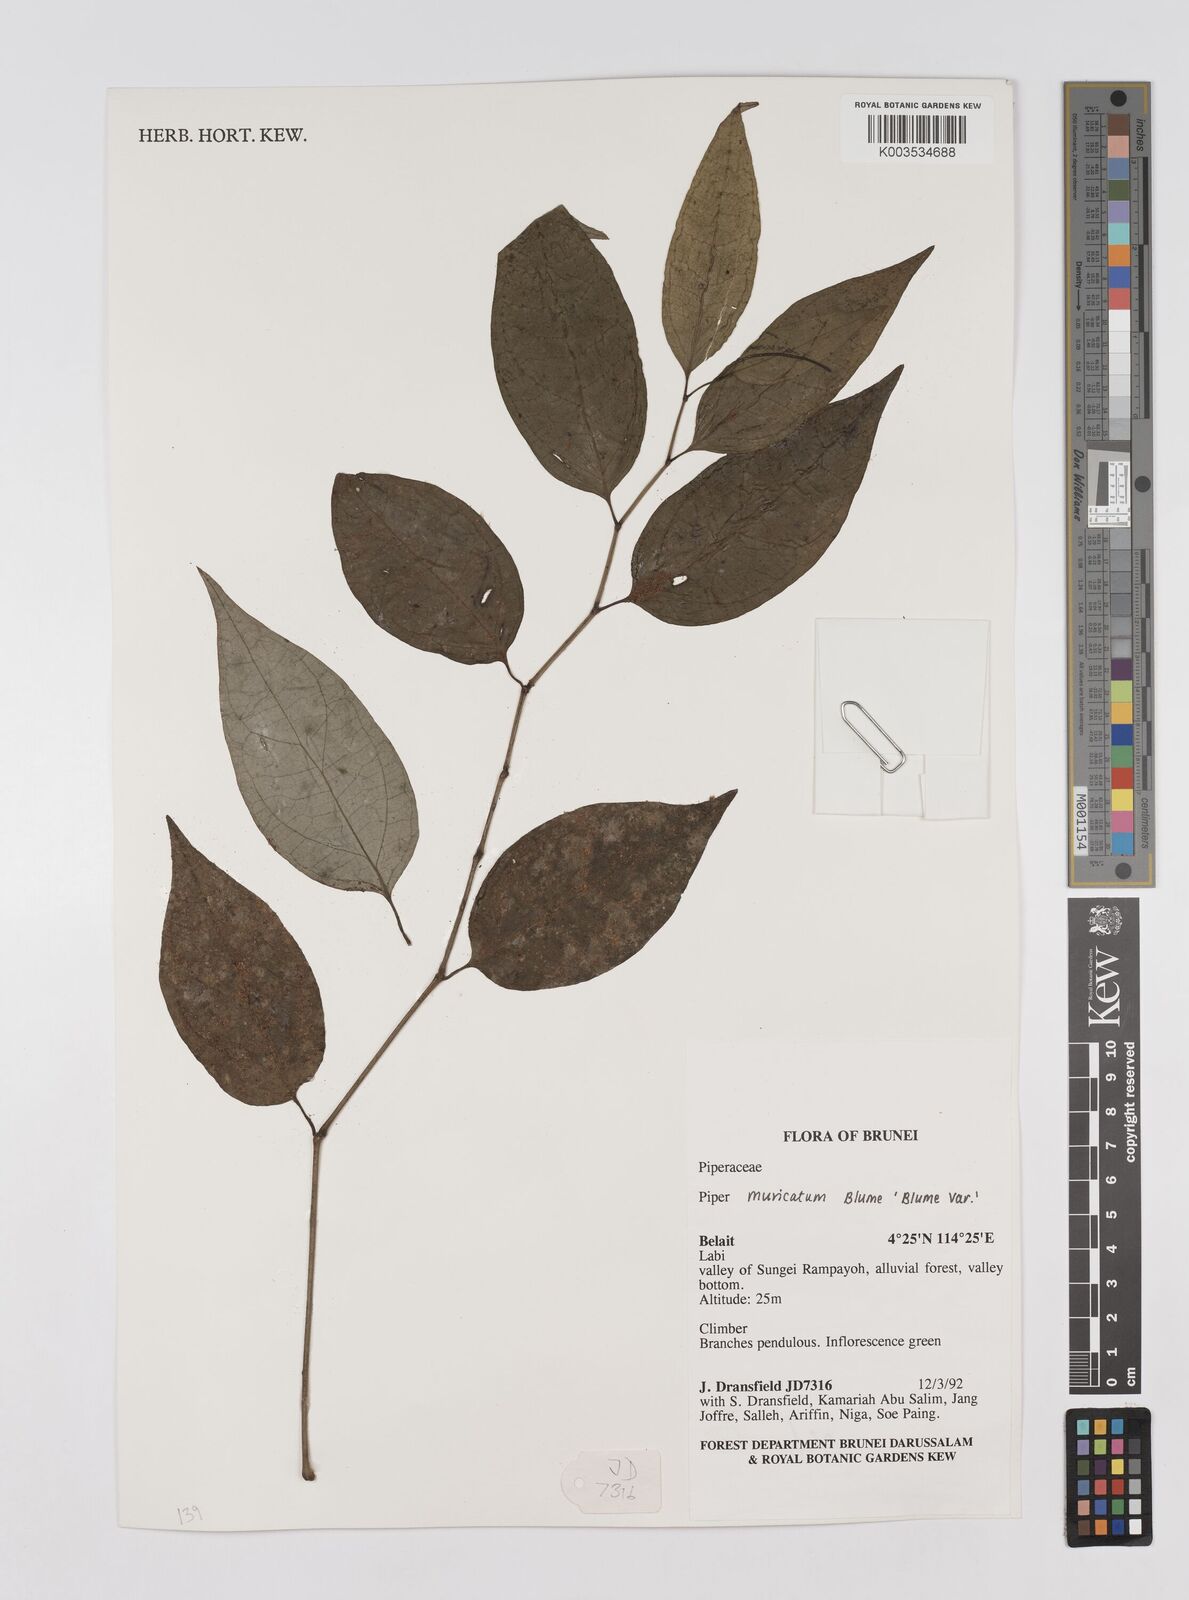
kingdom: Plantae
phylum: Tracheophyta
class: Magnoliopsida
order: Piperales
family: Piperaceae
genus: Piper
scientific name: Piper muricatum
